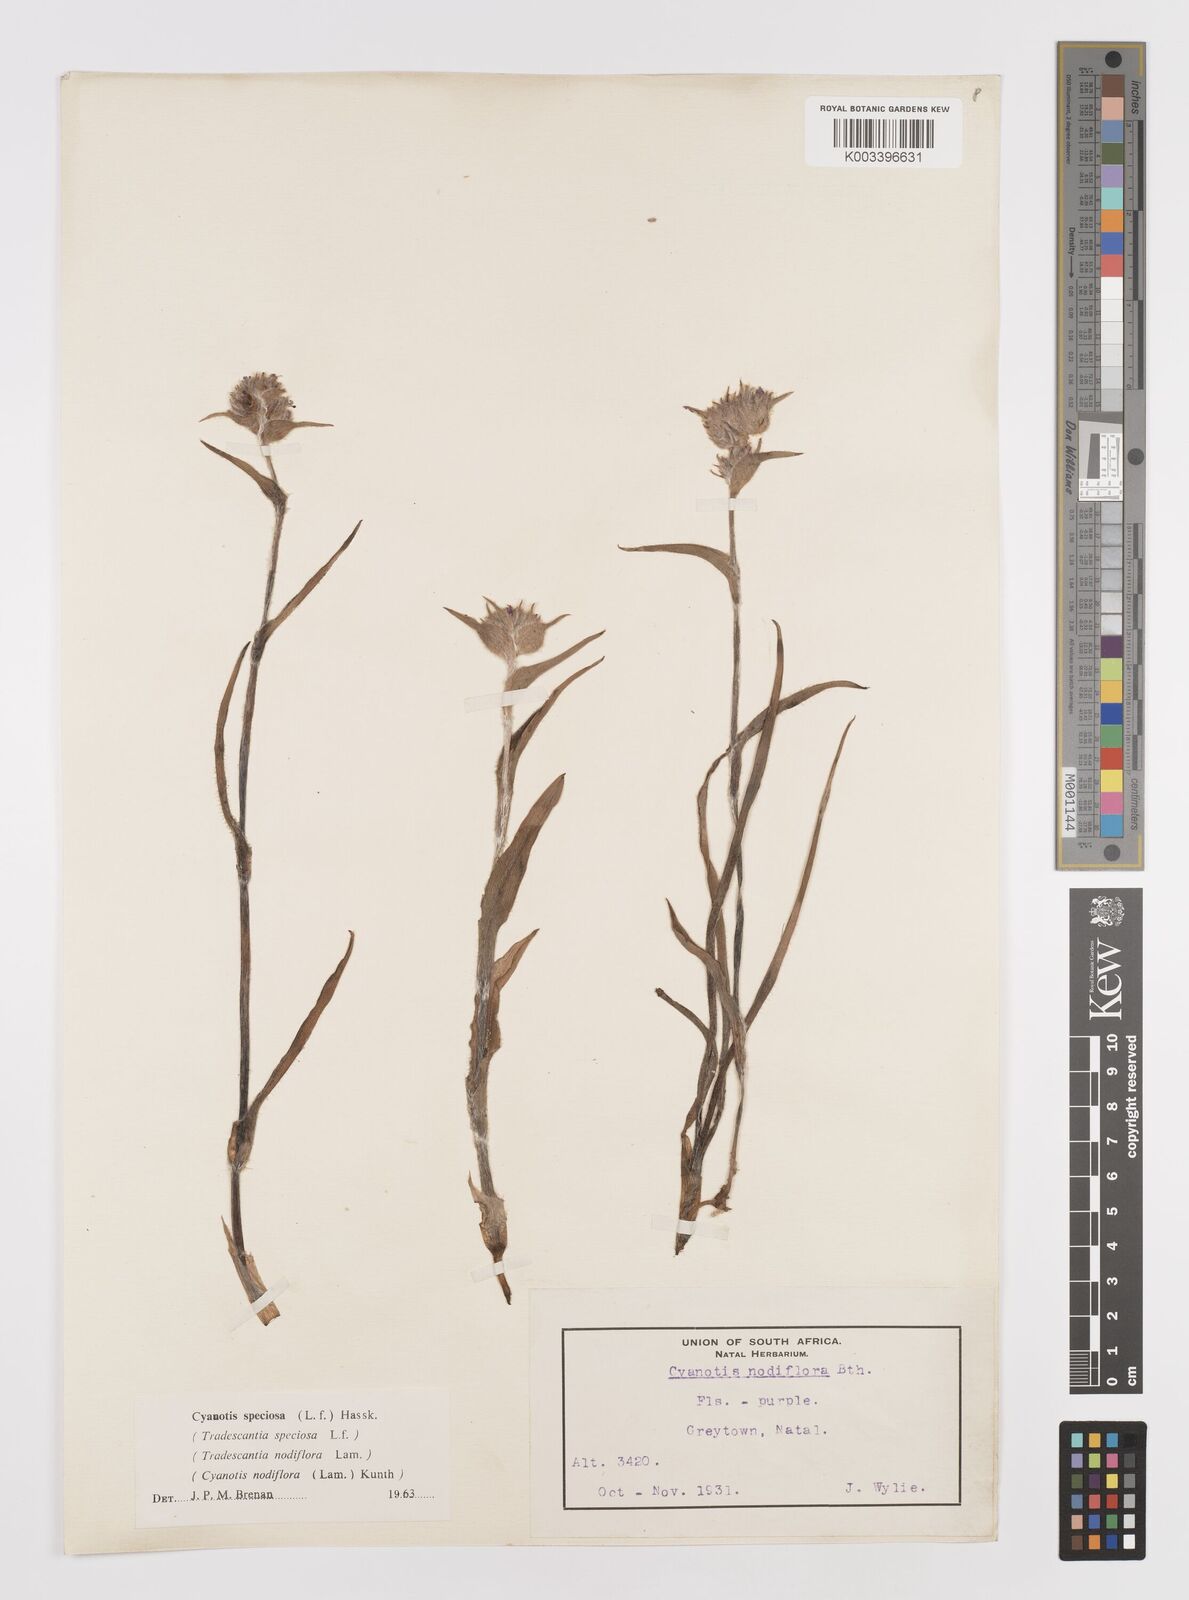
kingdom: Plantae
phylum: Tracheophyta
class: Liliopsida
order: Commelinales
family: Commelinaceae
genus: Cyanotis
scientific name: Cyanotis speciosa
